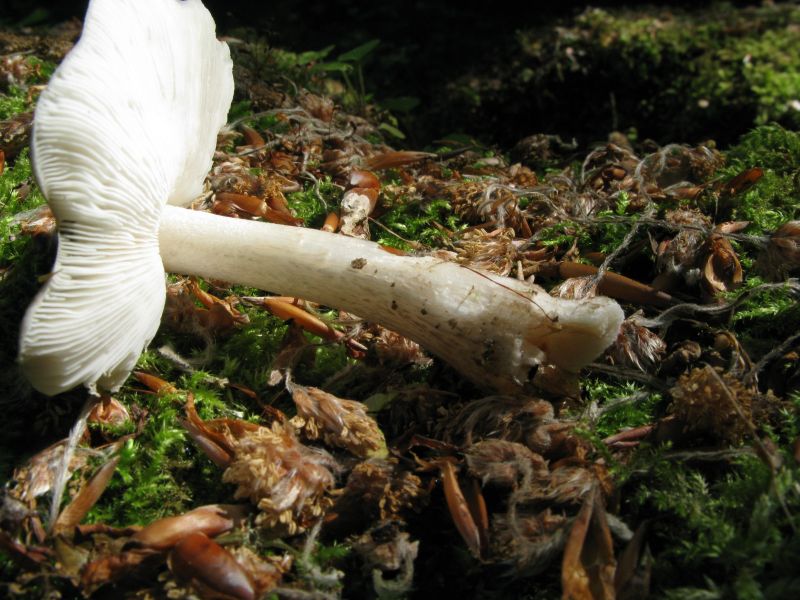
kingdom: Fungi
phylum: Basidiomycota
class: Agaricomycetes
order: Agaricales
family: Pluteaceae
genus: Pluteus
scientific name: Pluteus cervinus
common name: sodfarvet skærmhat
